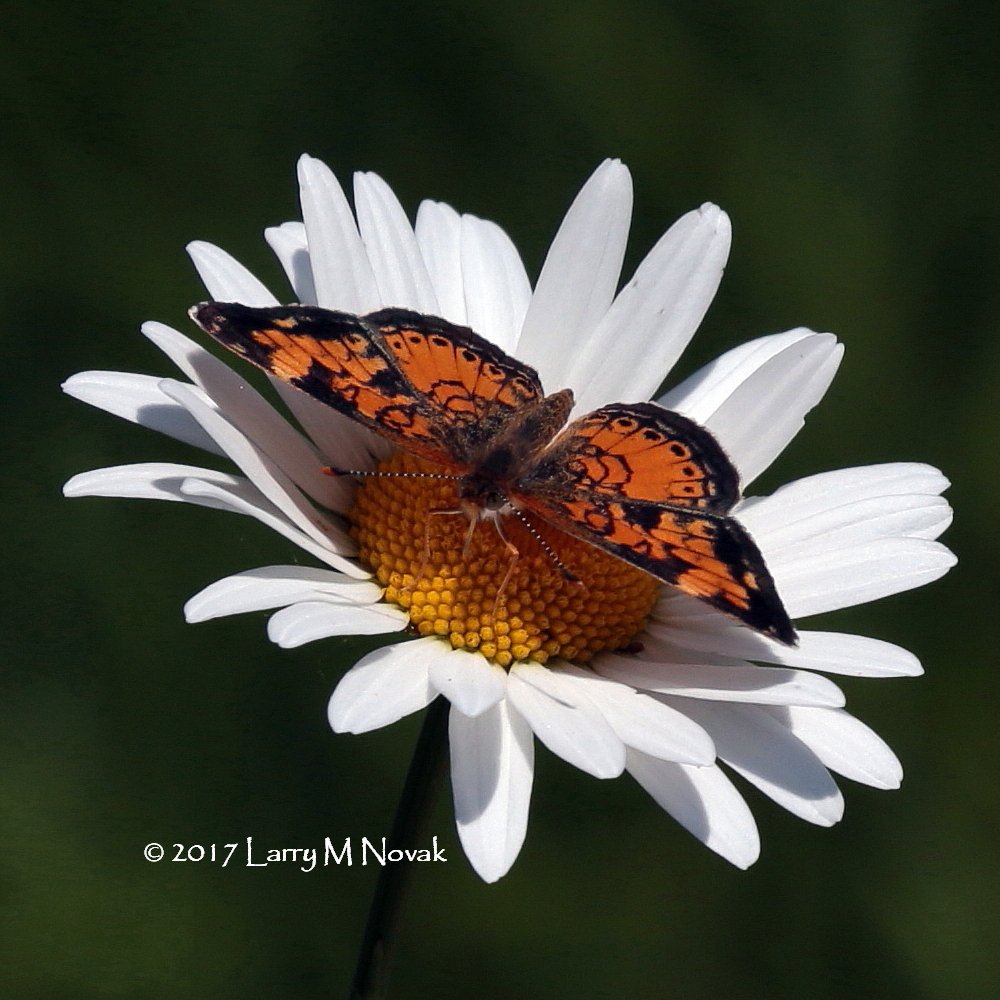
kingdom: Animalia
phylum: Arthropoda
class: Insecta
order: Lepidoptera
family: Nymphalidae
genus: Phyciodes
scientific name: Phyciodes tharos
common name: Northern Crescent
